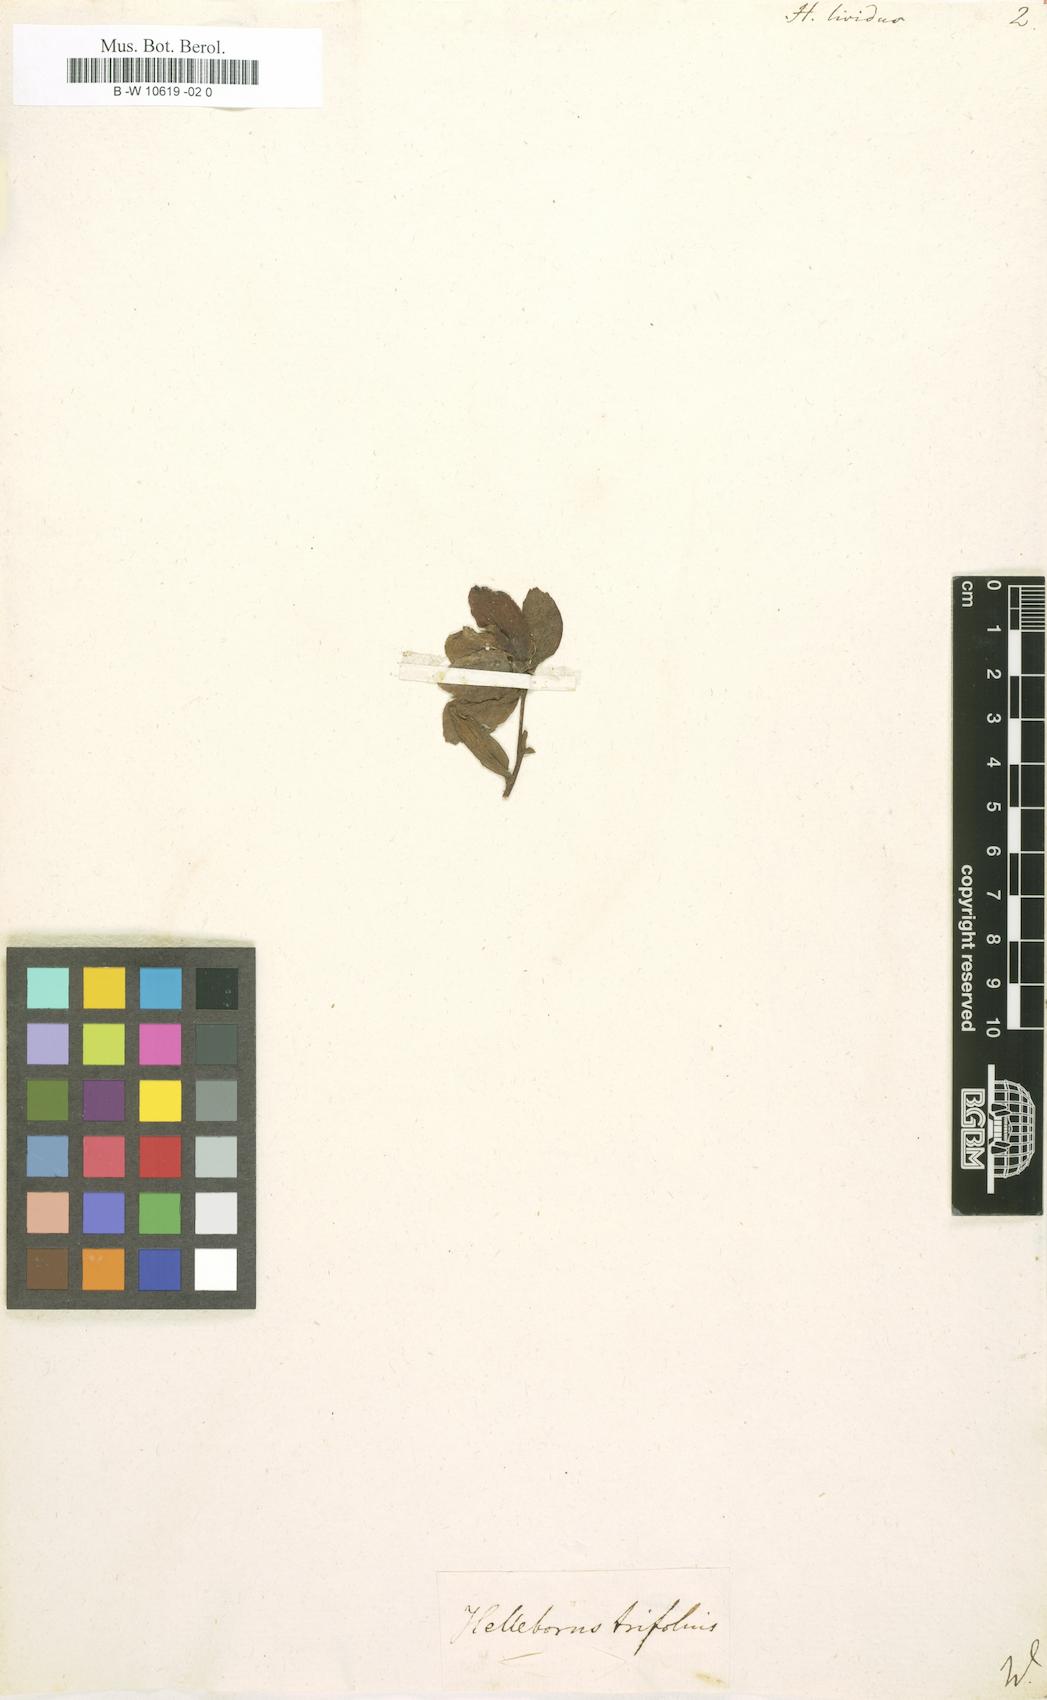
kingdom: Plantae
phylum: Tracheophyta
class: Magnoliopsida
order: Ranunculales
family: Ranunculaceae
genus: Helleborus
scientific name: Helleborus lividus
